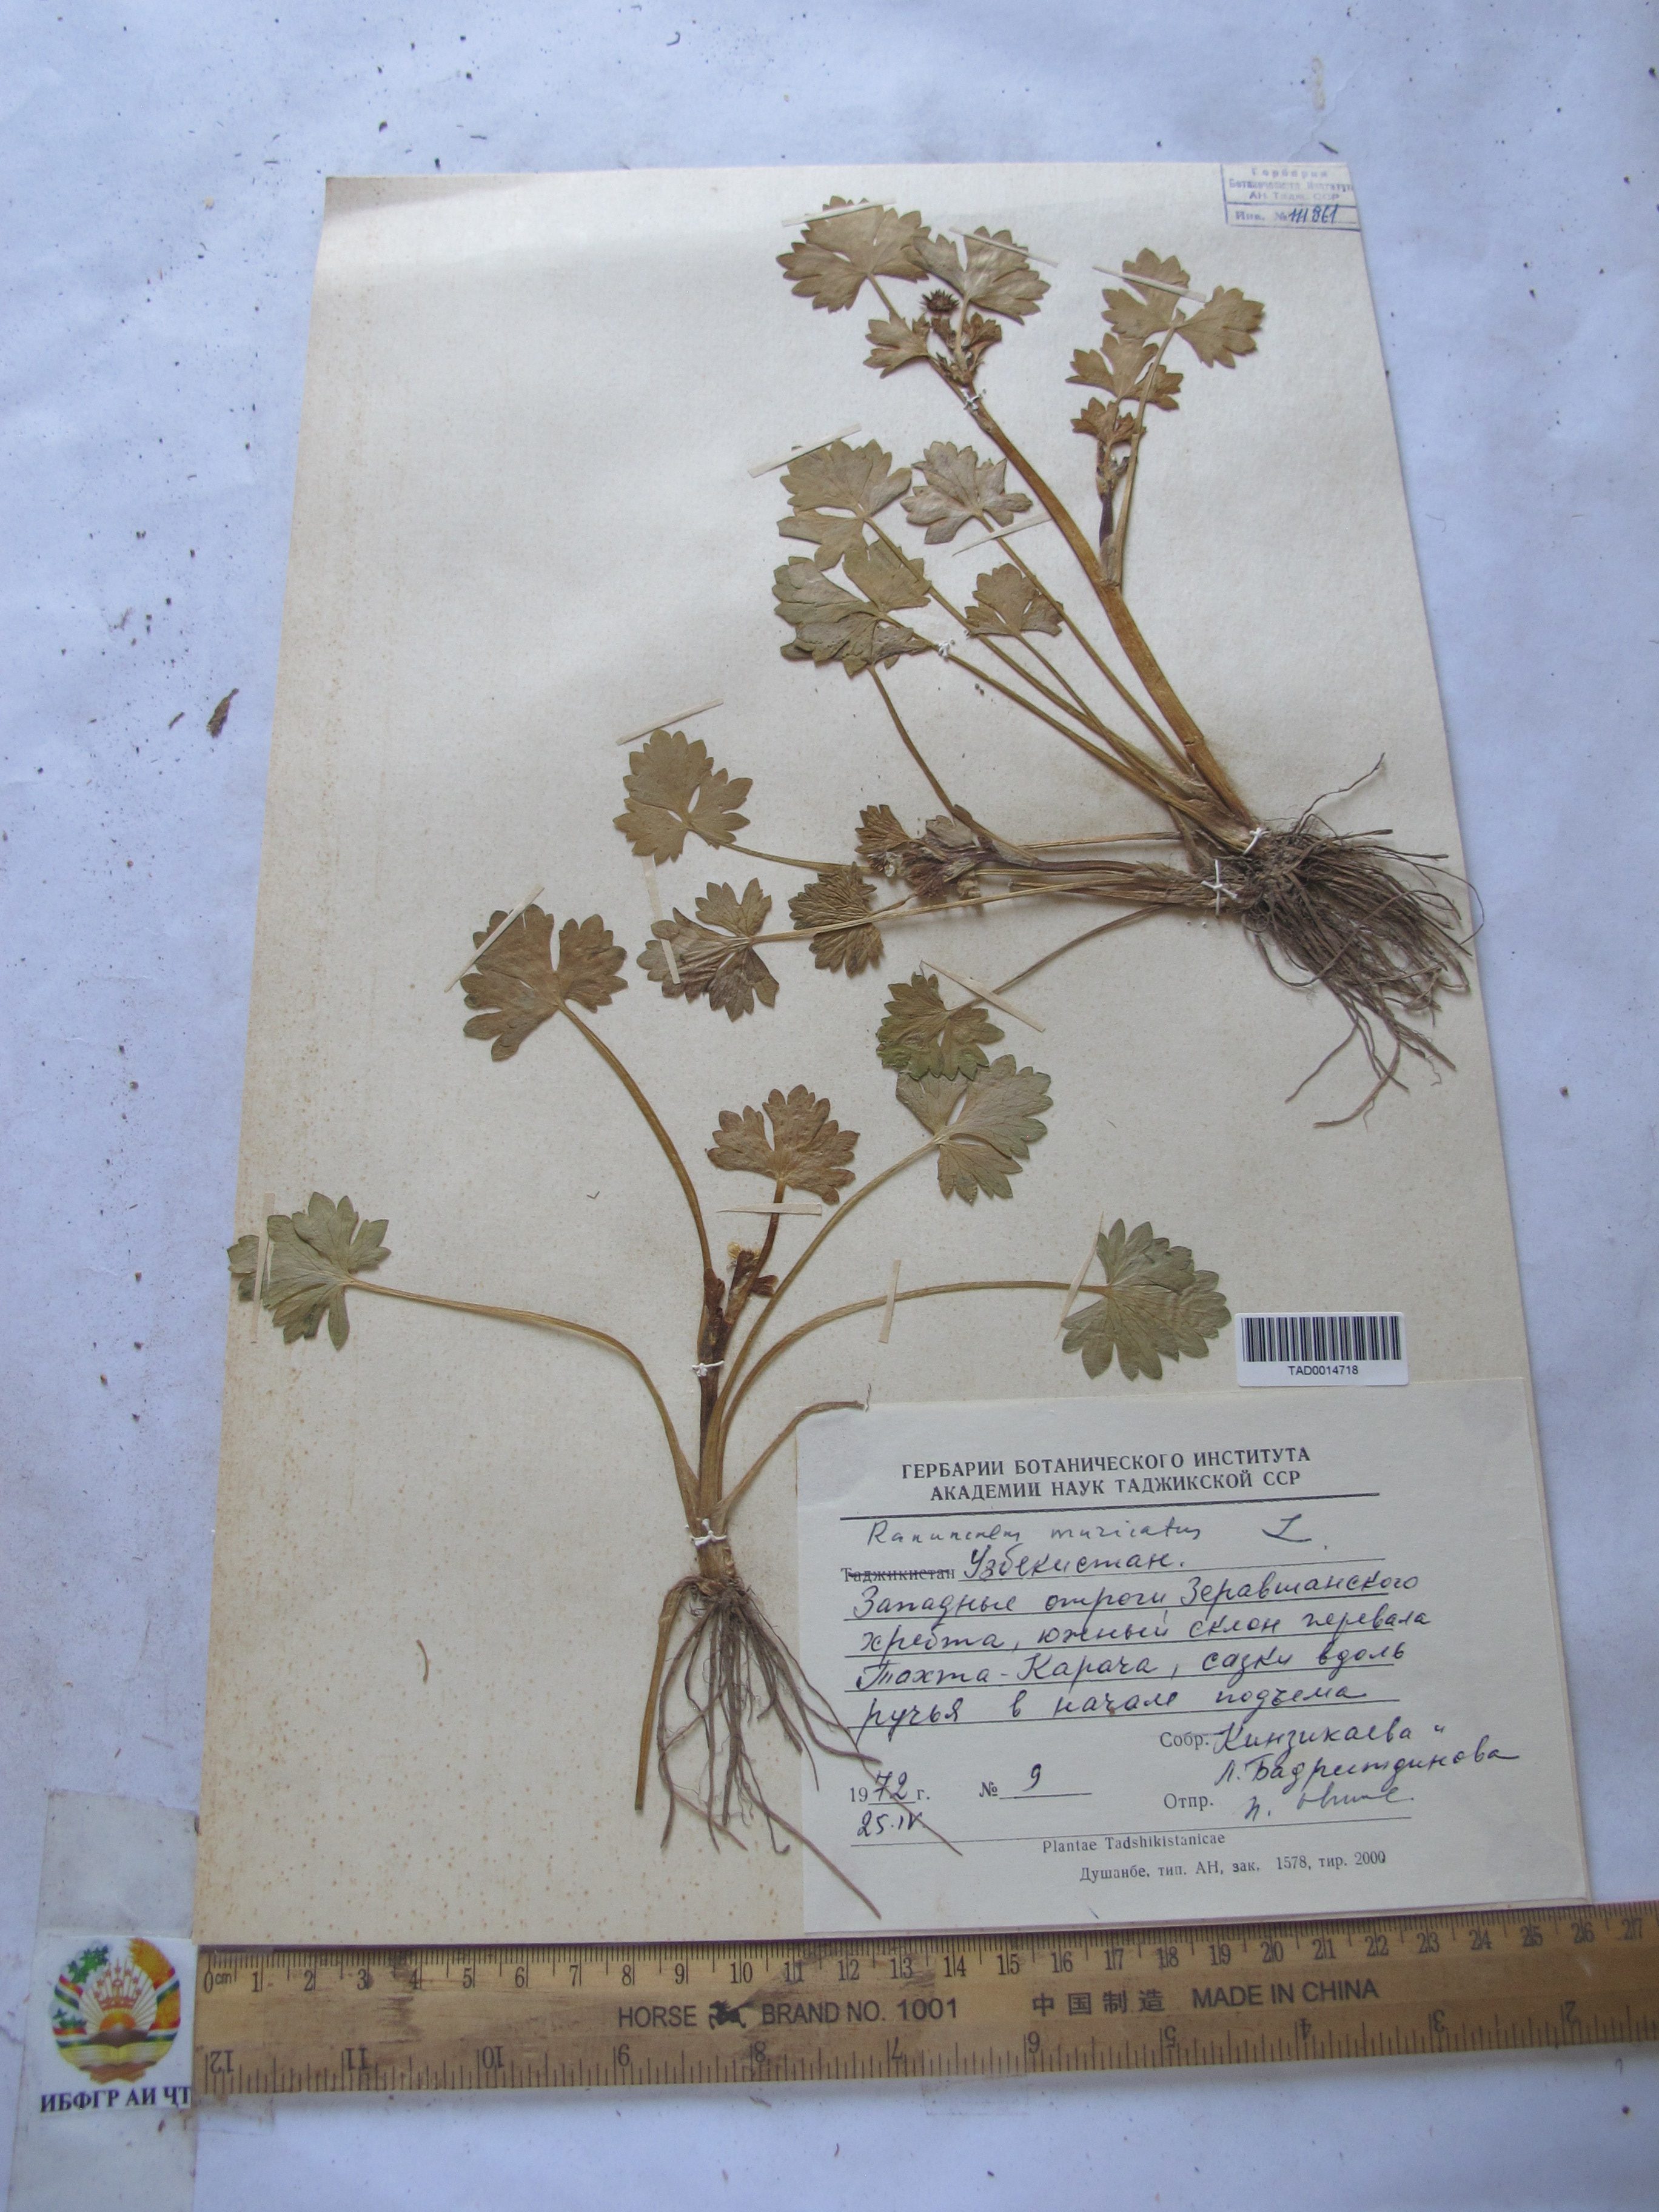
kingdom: Plantae
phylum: Tracheophyta
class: Magnoliopsida
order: Ranunculales
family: Ranunculaceae
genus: Ranunculus
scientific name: Ranunculus muricatus
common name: Rough-fruited buttercup
